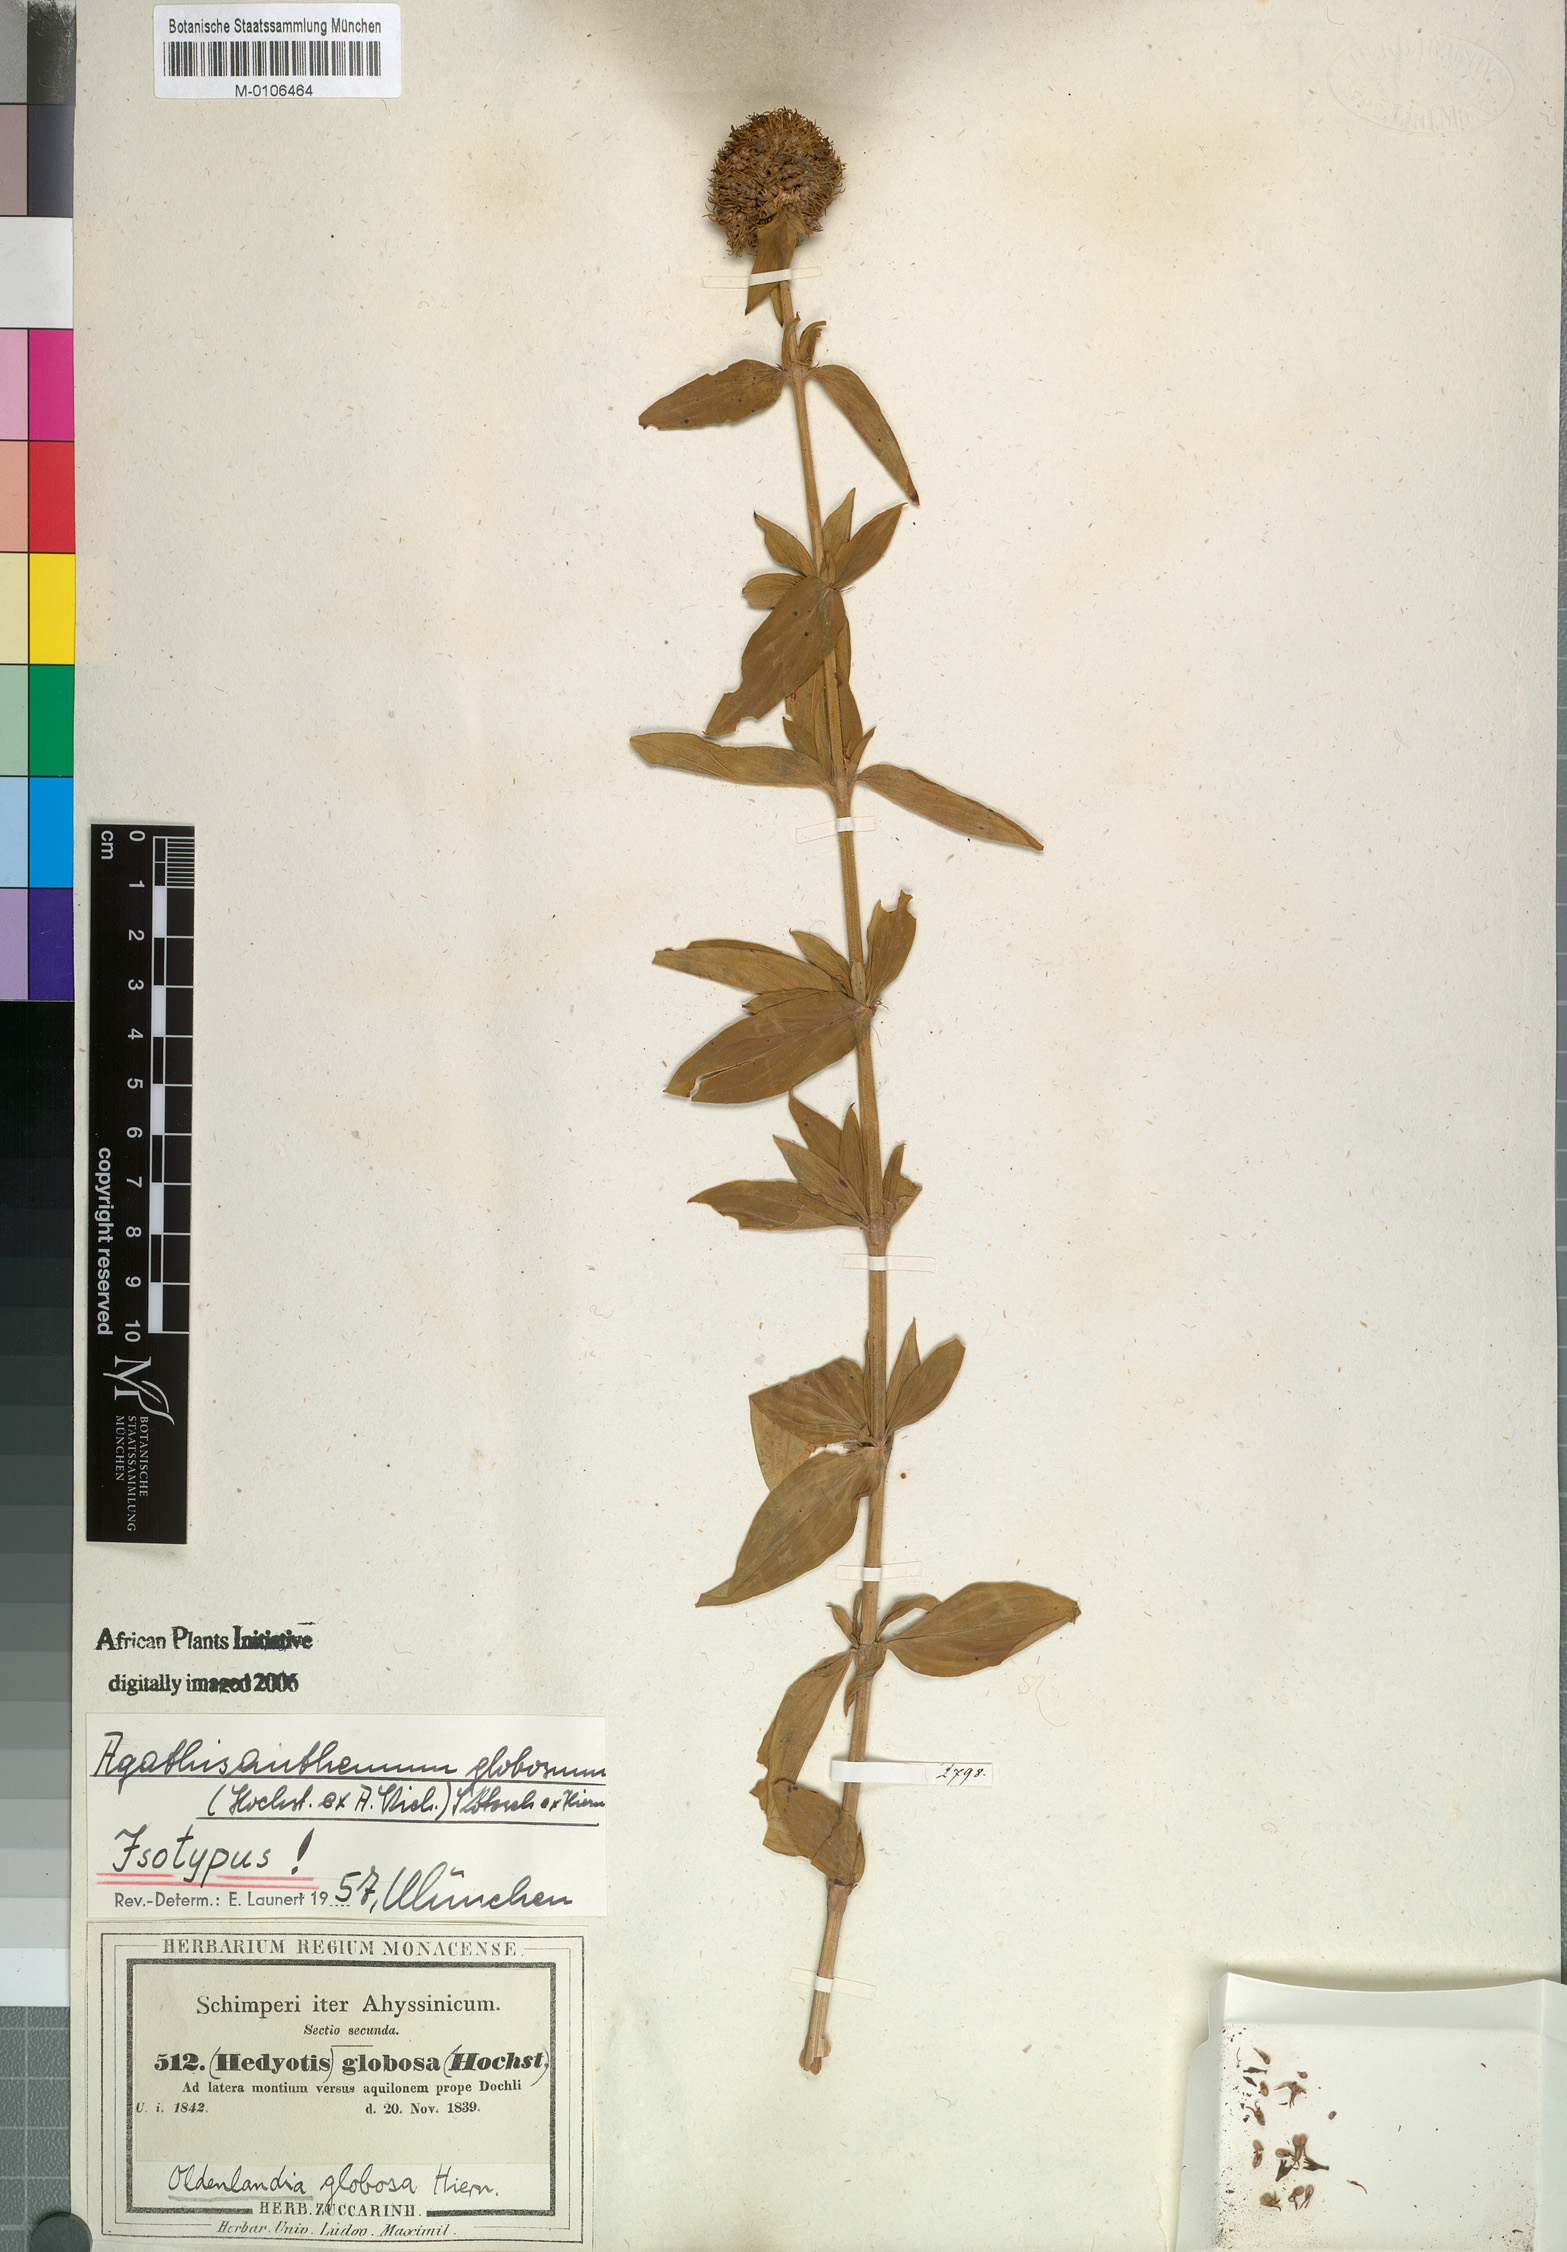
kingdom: Plantae
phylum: Tracheophyta
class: Magnoliopsida
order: Gentianales
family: Rubiaceae
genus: Agathisanthemum
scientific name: Agathisanthemum globosum
